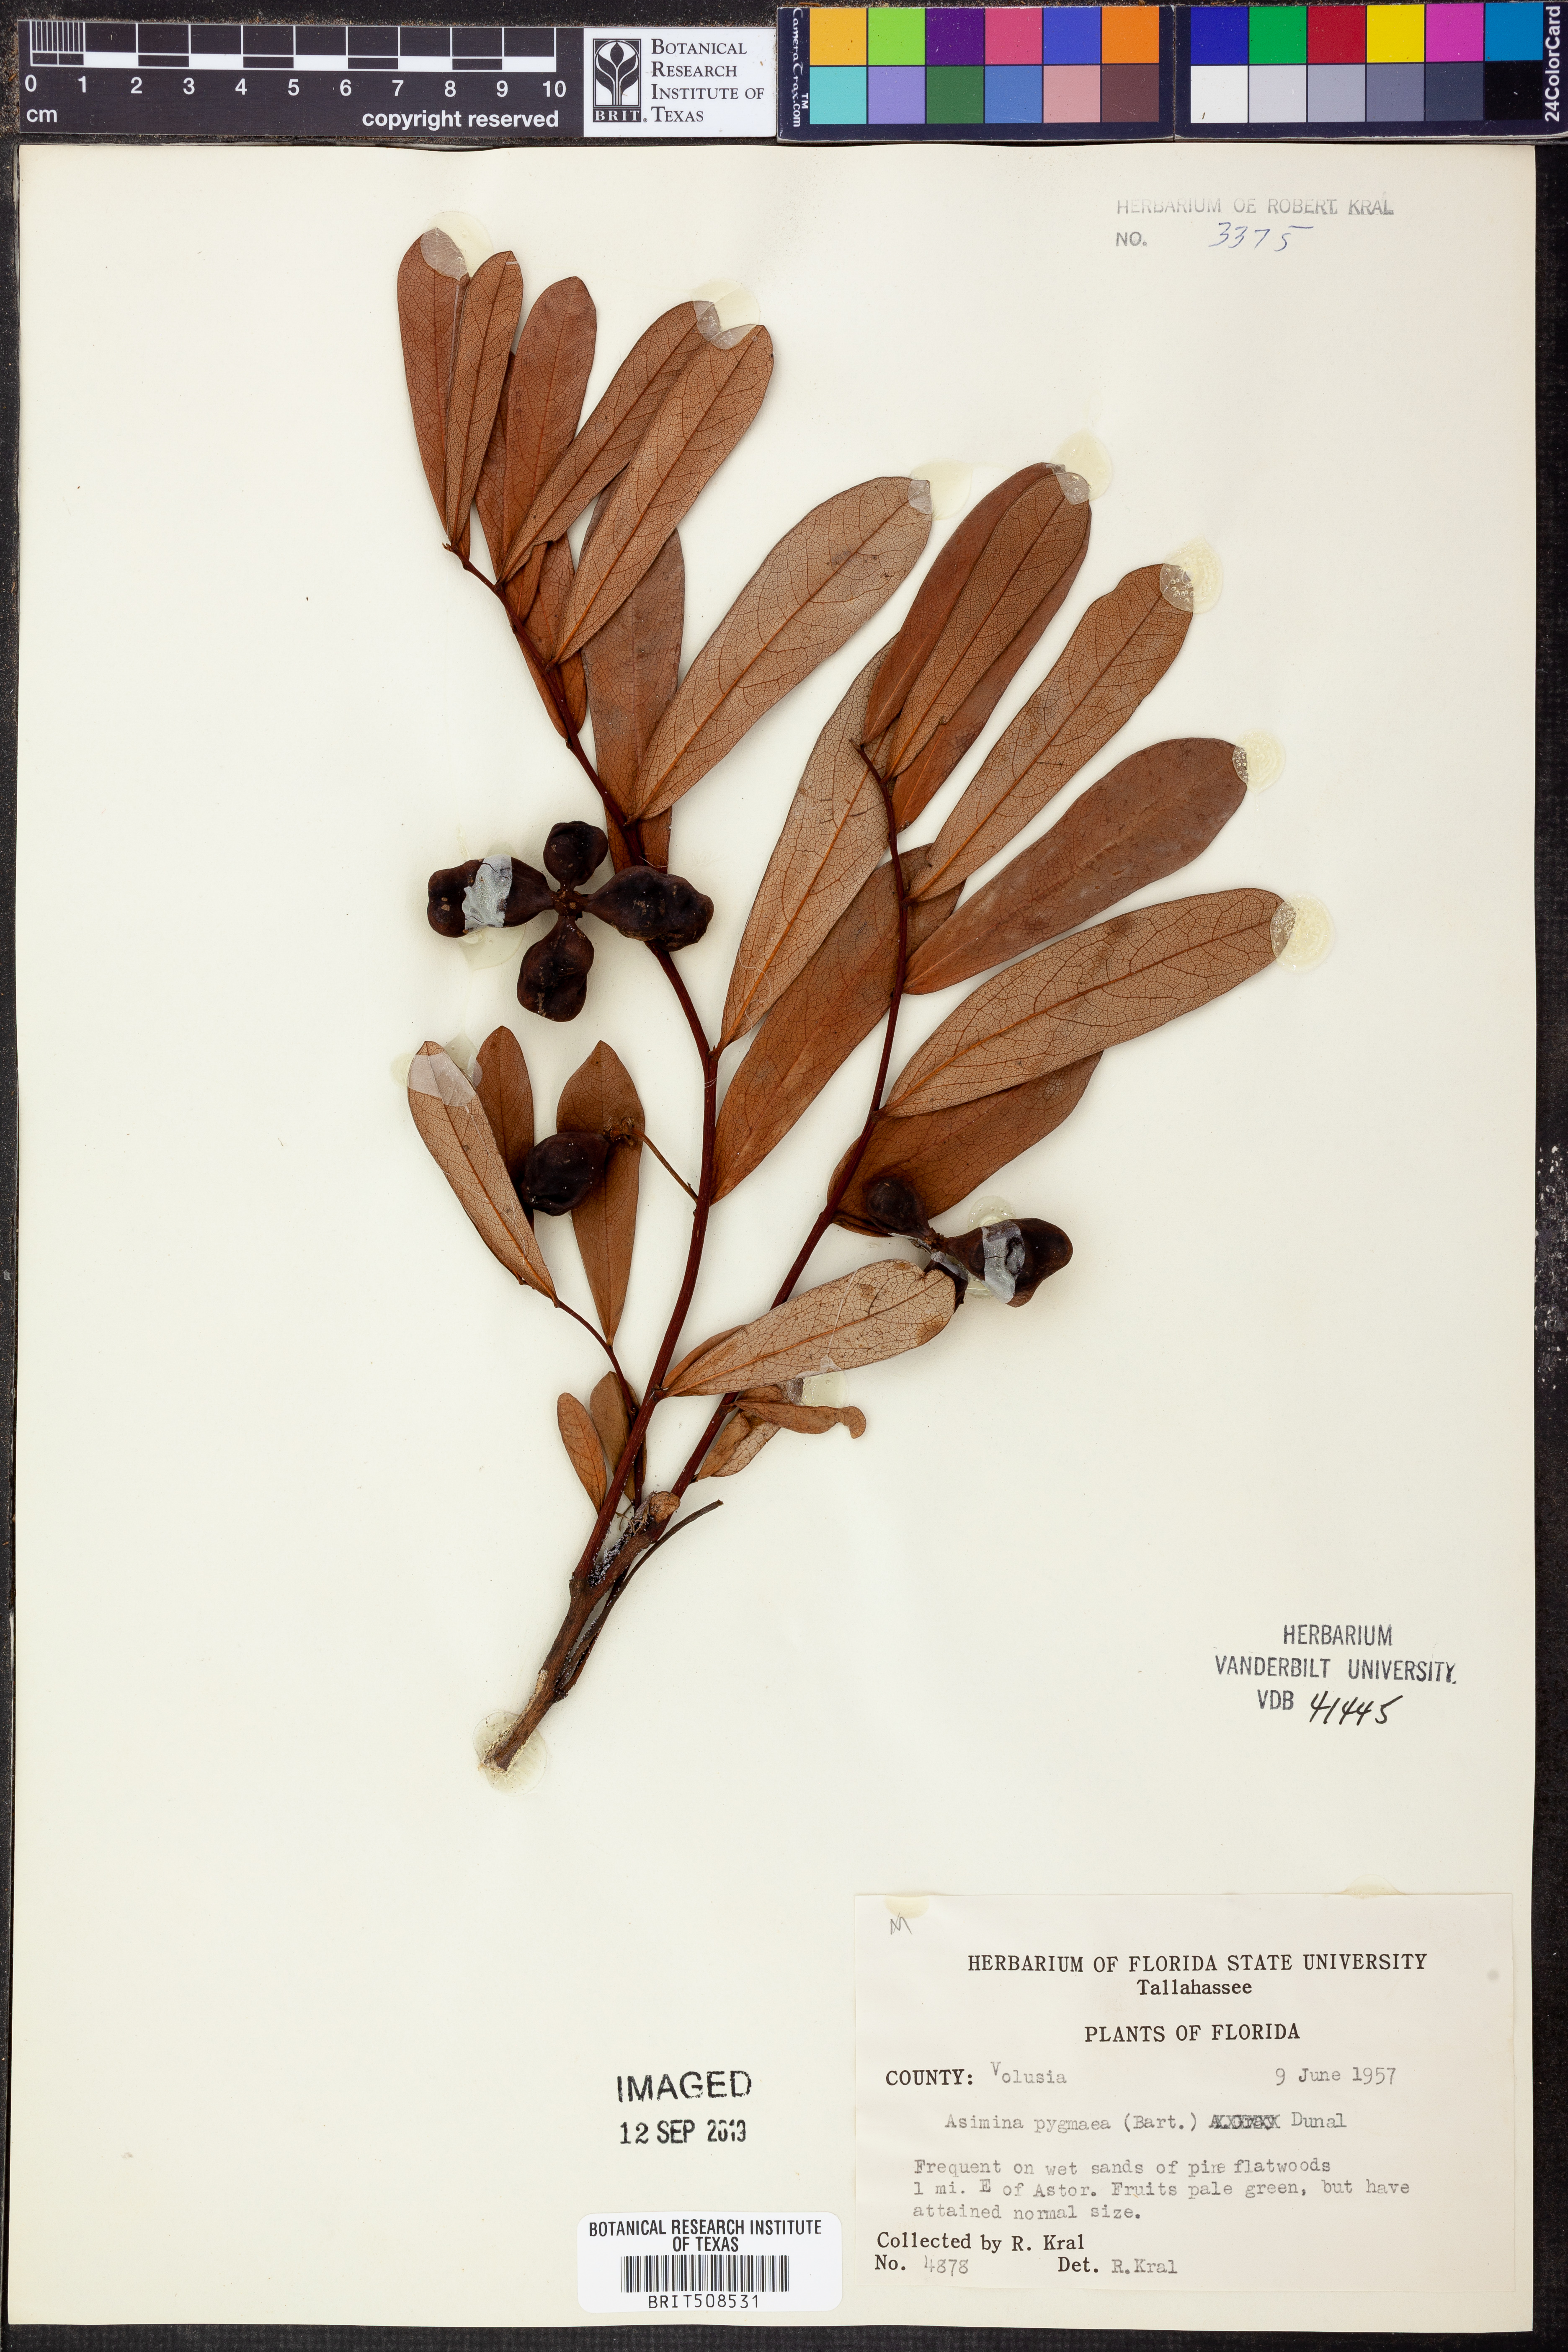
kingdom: Plantae
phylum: Tracheophyta
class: Magnoliopsida
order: Magnoliales
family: Annonaceae
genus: Asimina
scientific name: Asimina pygmaea
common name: Dwarf pawpaw
